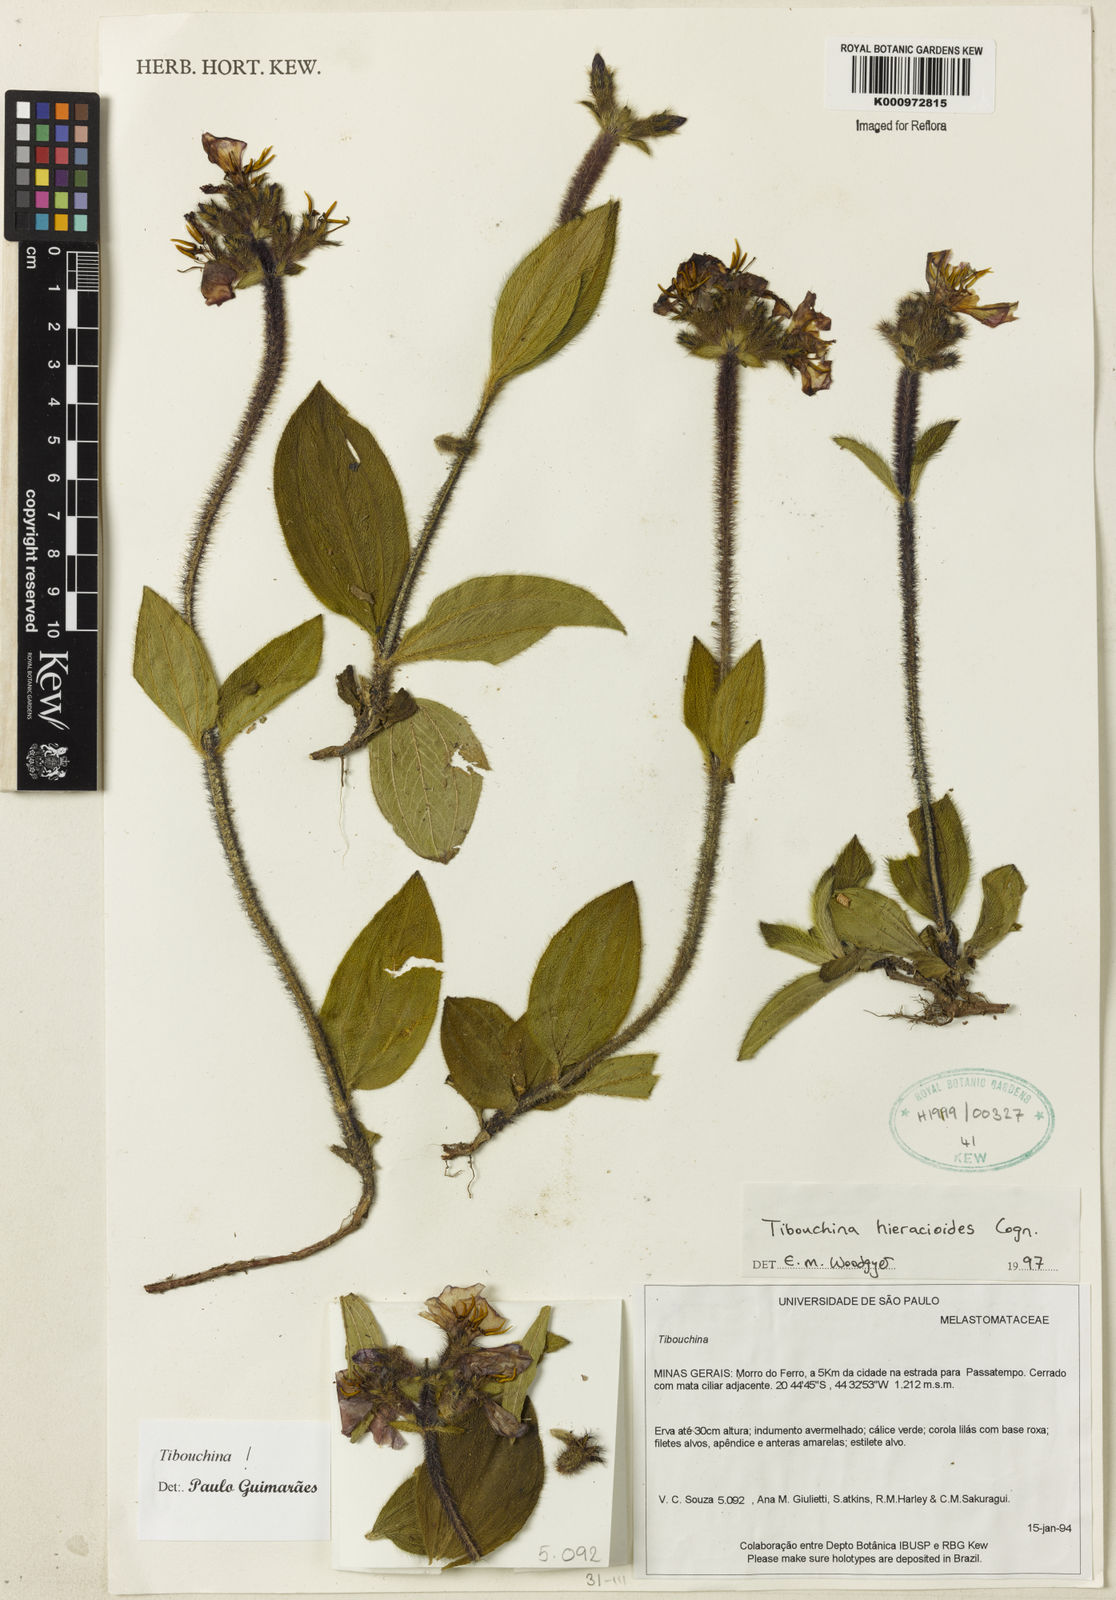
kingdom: Plantae
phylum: Tracheophyta
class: Magnoliopsida
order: Myrtales
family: Melastomataceae
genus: Chaetogastra
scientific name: Chaetogastra hieracioides
